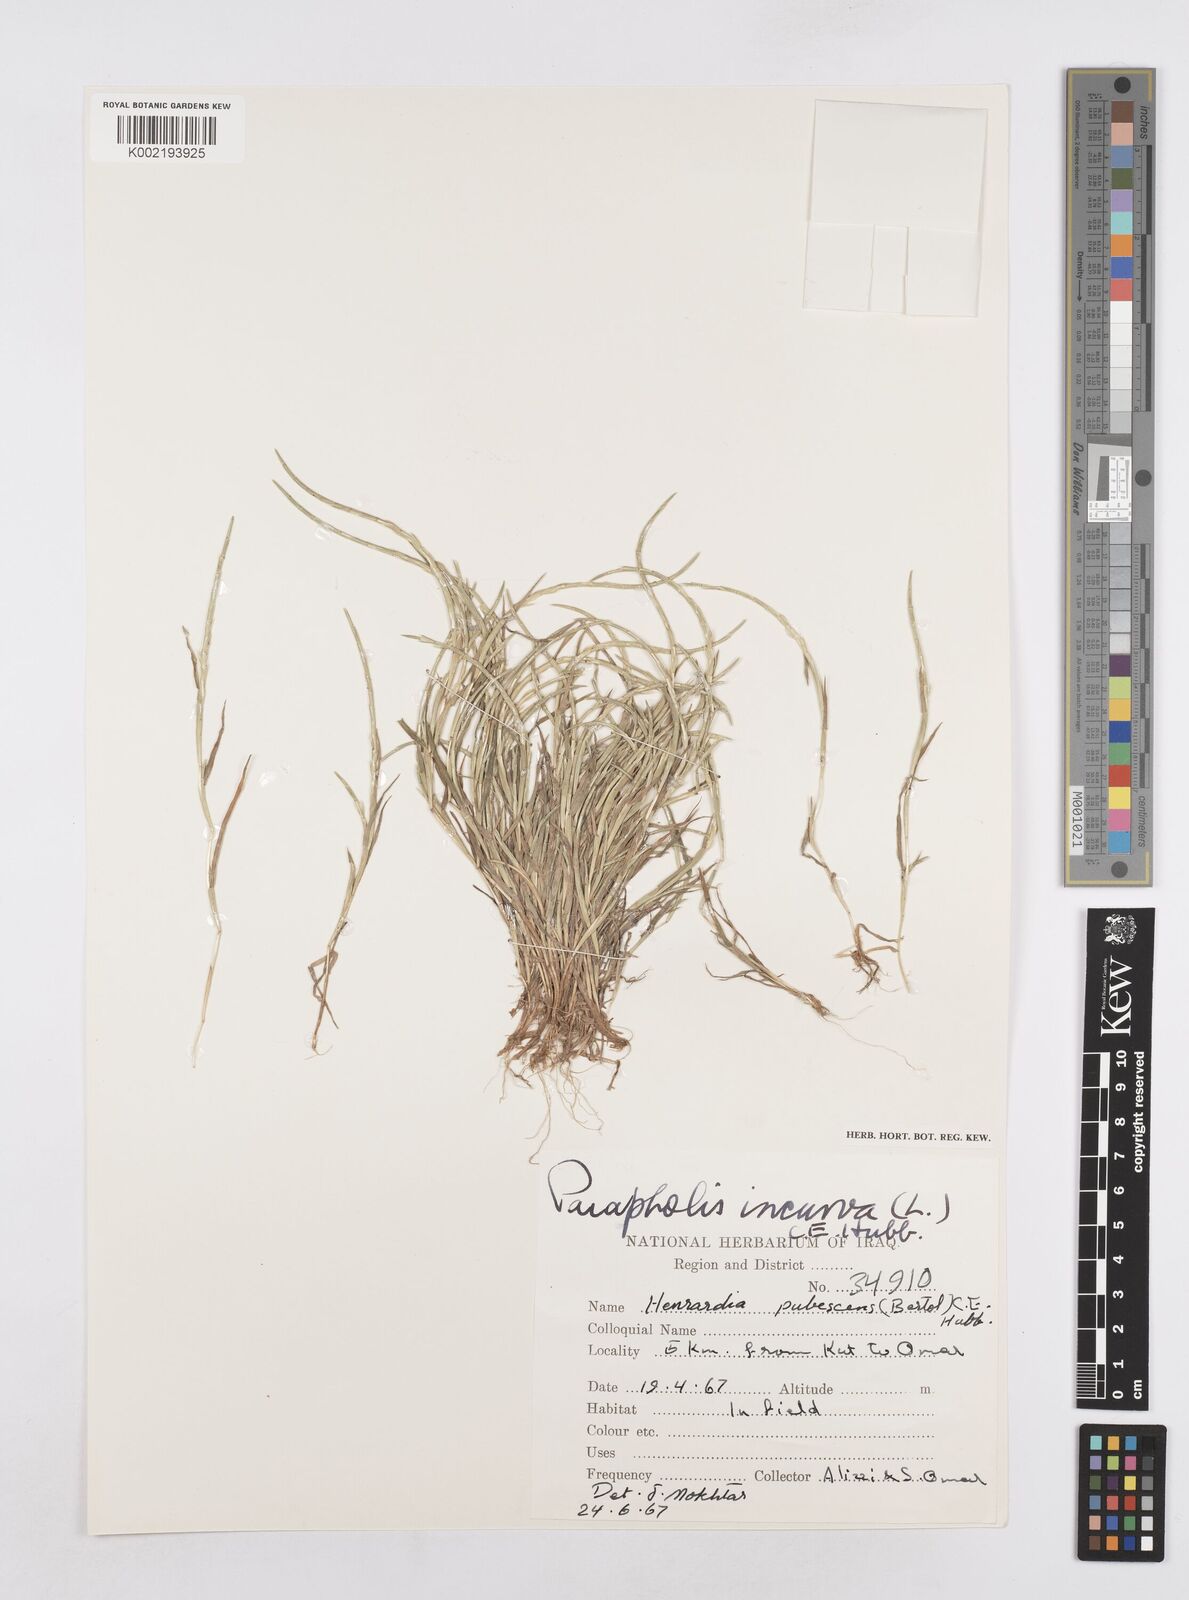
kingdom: Plantae
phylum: Tracheophyta
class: Liliopsida
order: Poales
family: Poaceae
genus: Parapholis
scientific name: Parapholis incurva
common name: Curved sicklegrass
